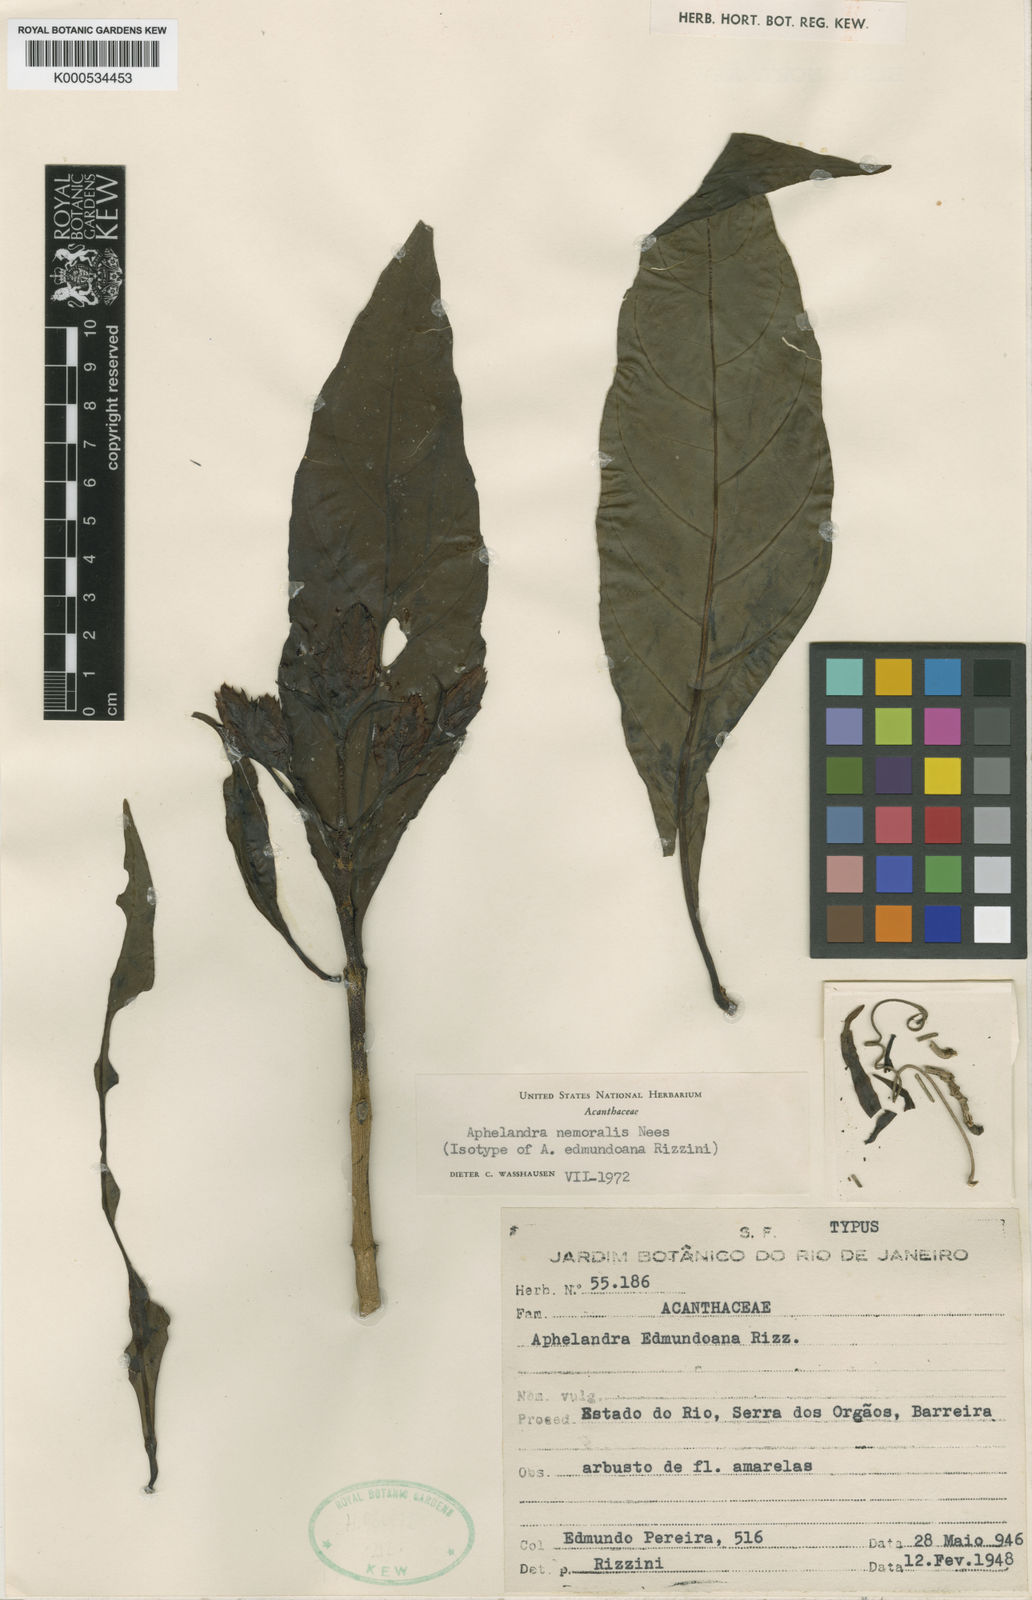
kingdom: Plantae
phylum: Tracheophyta
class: Magnoliopsida
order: Lamiales
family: Acanthaceae
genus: Aphelandra
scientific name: Aphelandra nemoralis
